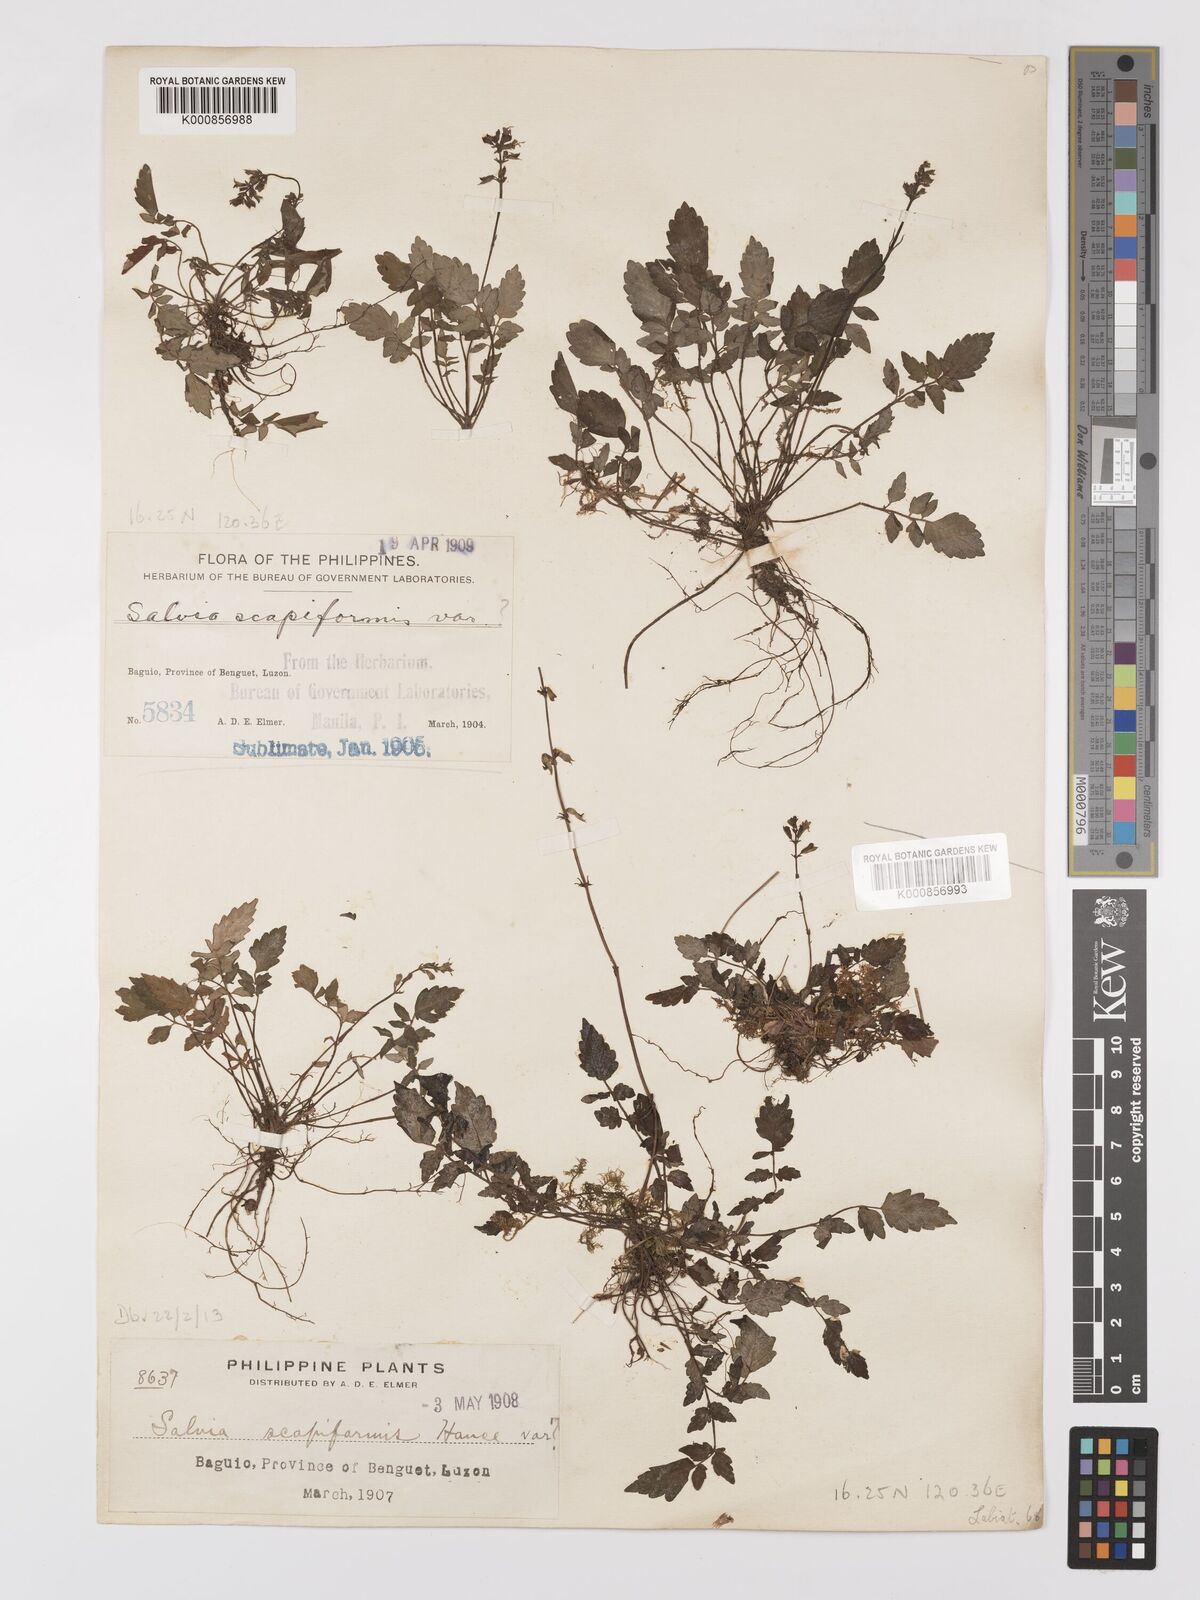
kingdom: Plantae
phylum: Tracheophyta
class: Magnoliopsida
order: Lamiales
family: Lamiaceae
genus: Salvia
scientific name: Salvia scapiformis
